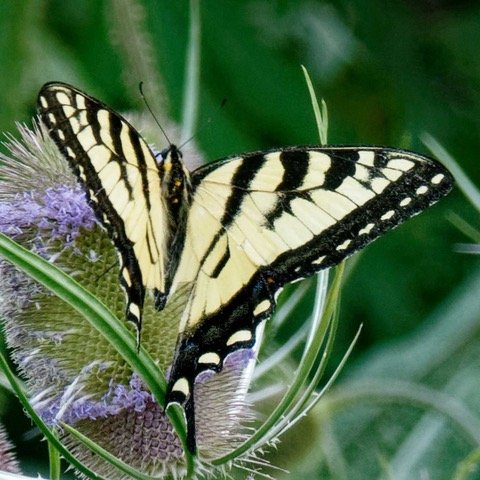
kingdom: Animalia
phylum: Arthropoda
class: Insecta
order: Lepidoptera
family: Papilionidae
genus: Pterourus
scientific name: Pterourus glaucus
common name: Eastern Tiger Swallowtail
